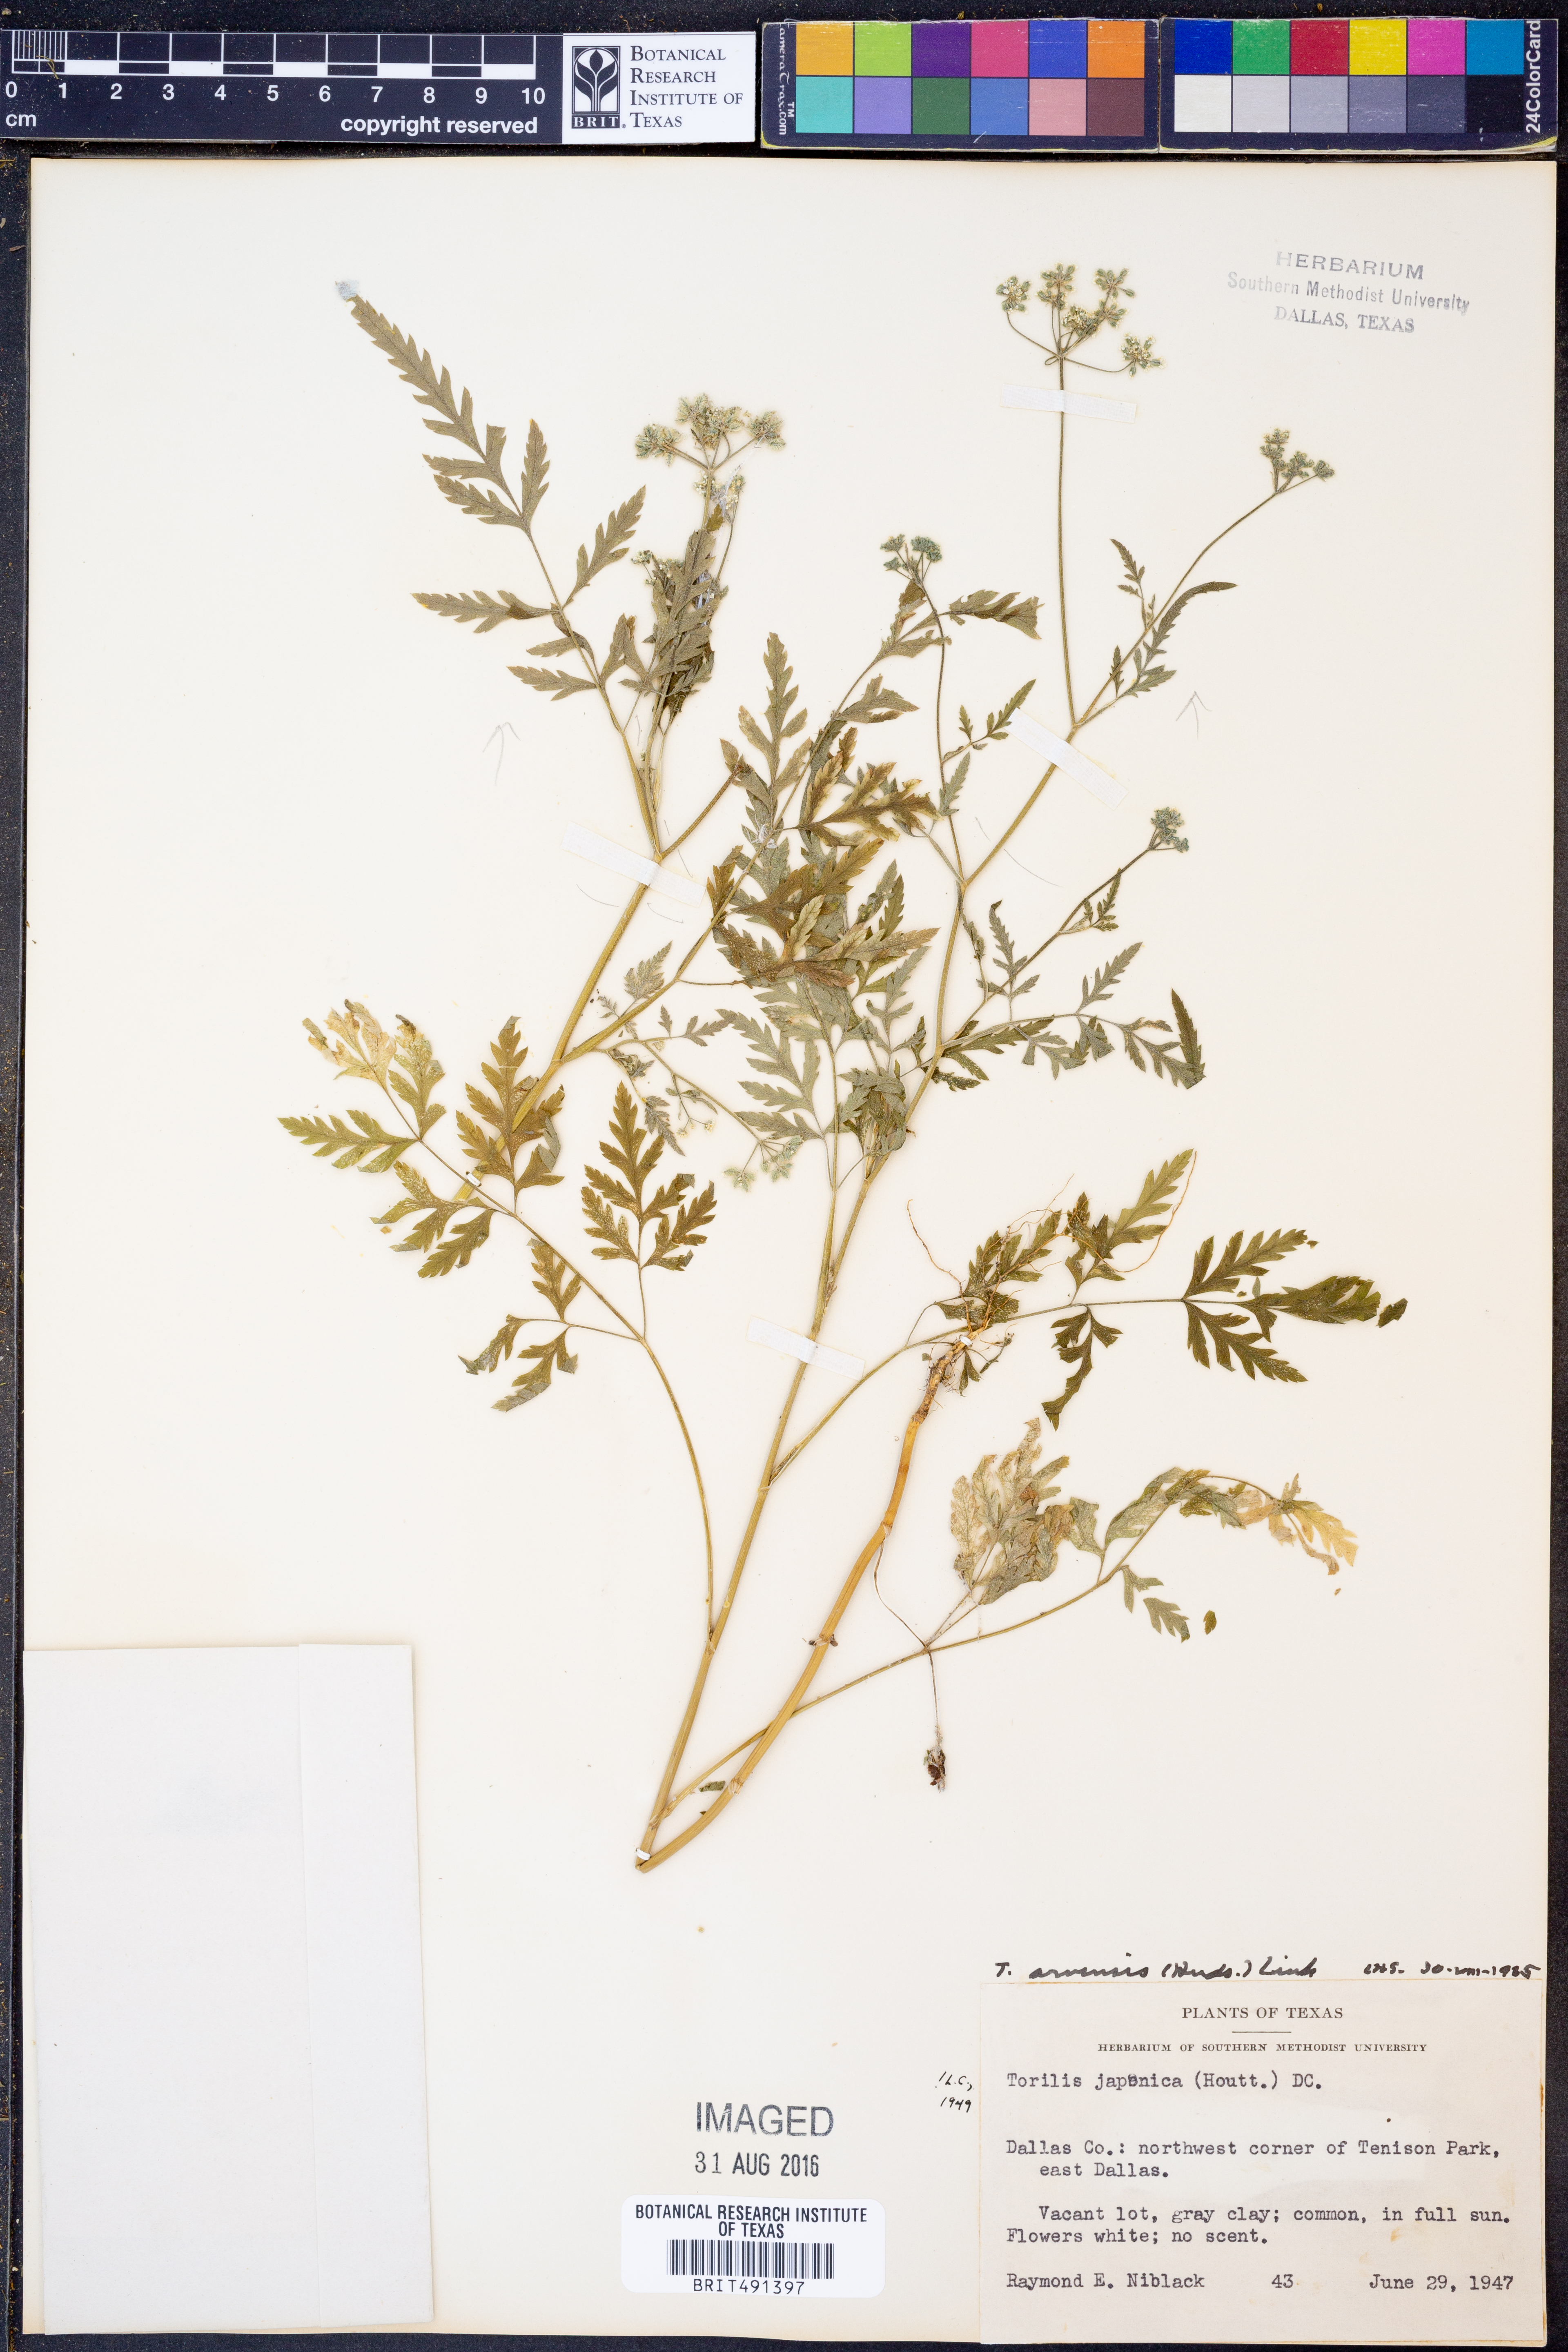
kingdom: Plantae
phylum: Tracheophyta
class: Magnoliopsida
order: Apiales
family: Apiaceae
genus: Torilis
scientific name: Torilis arvensis
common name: Spreading hedge-parsley
